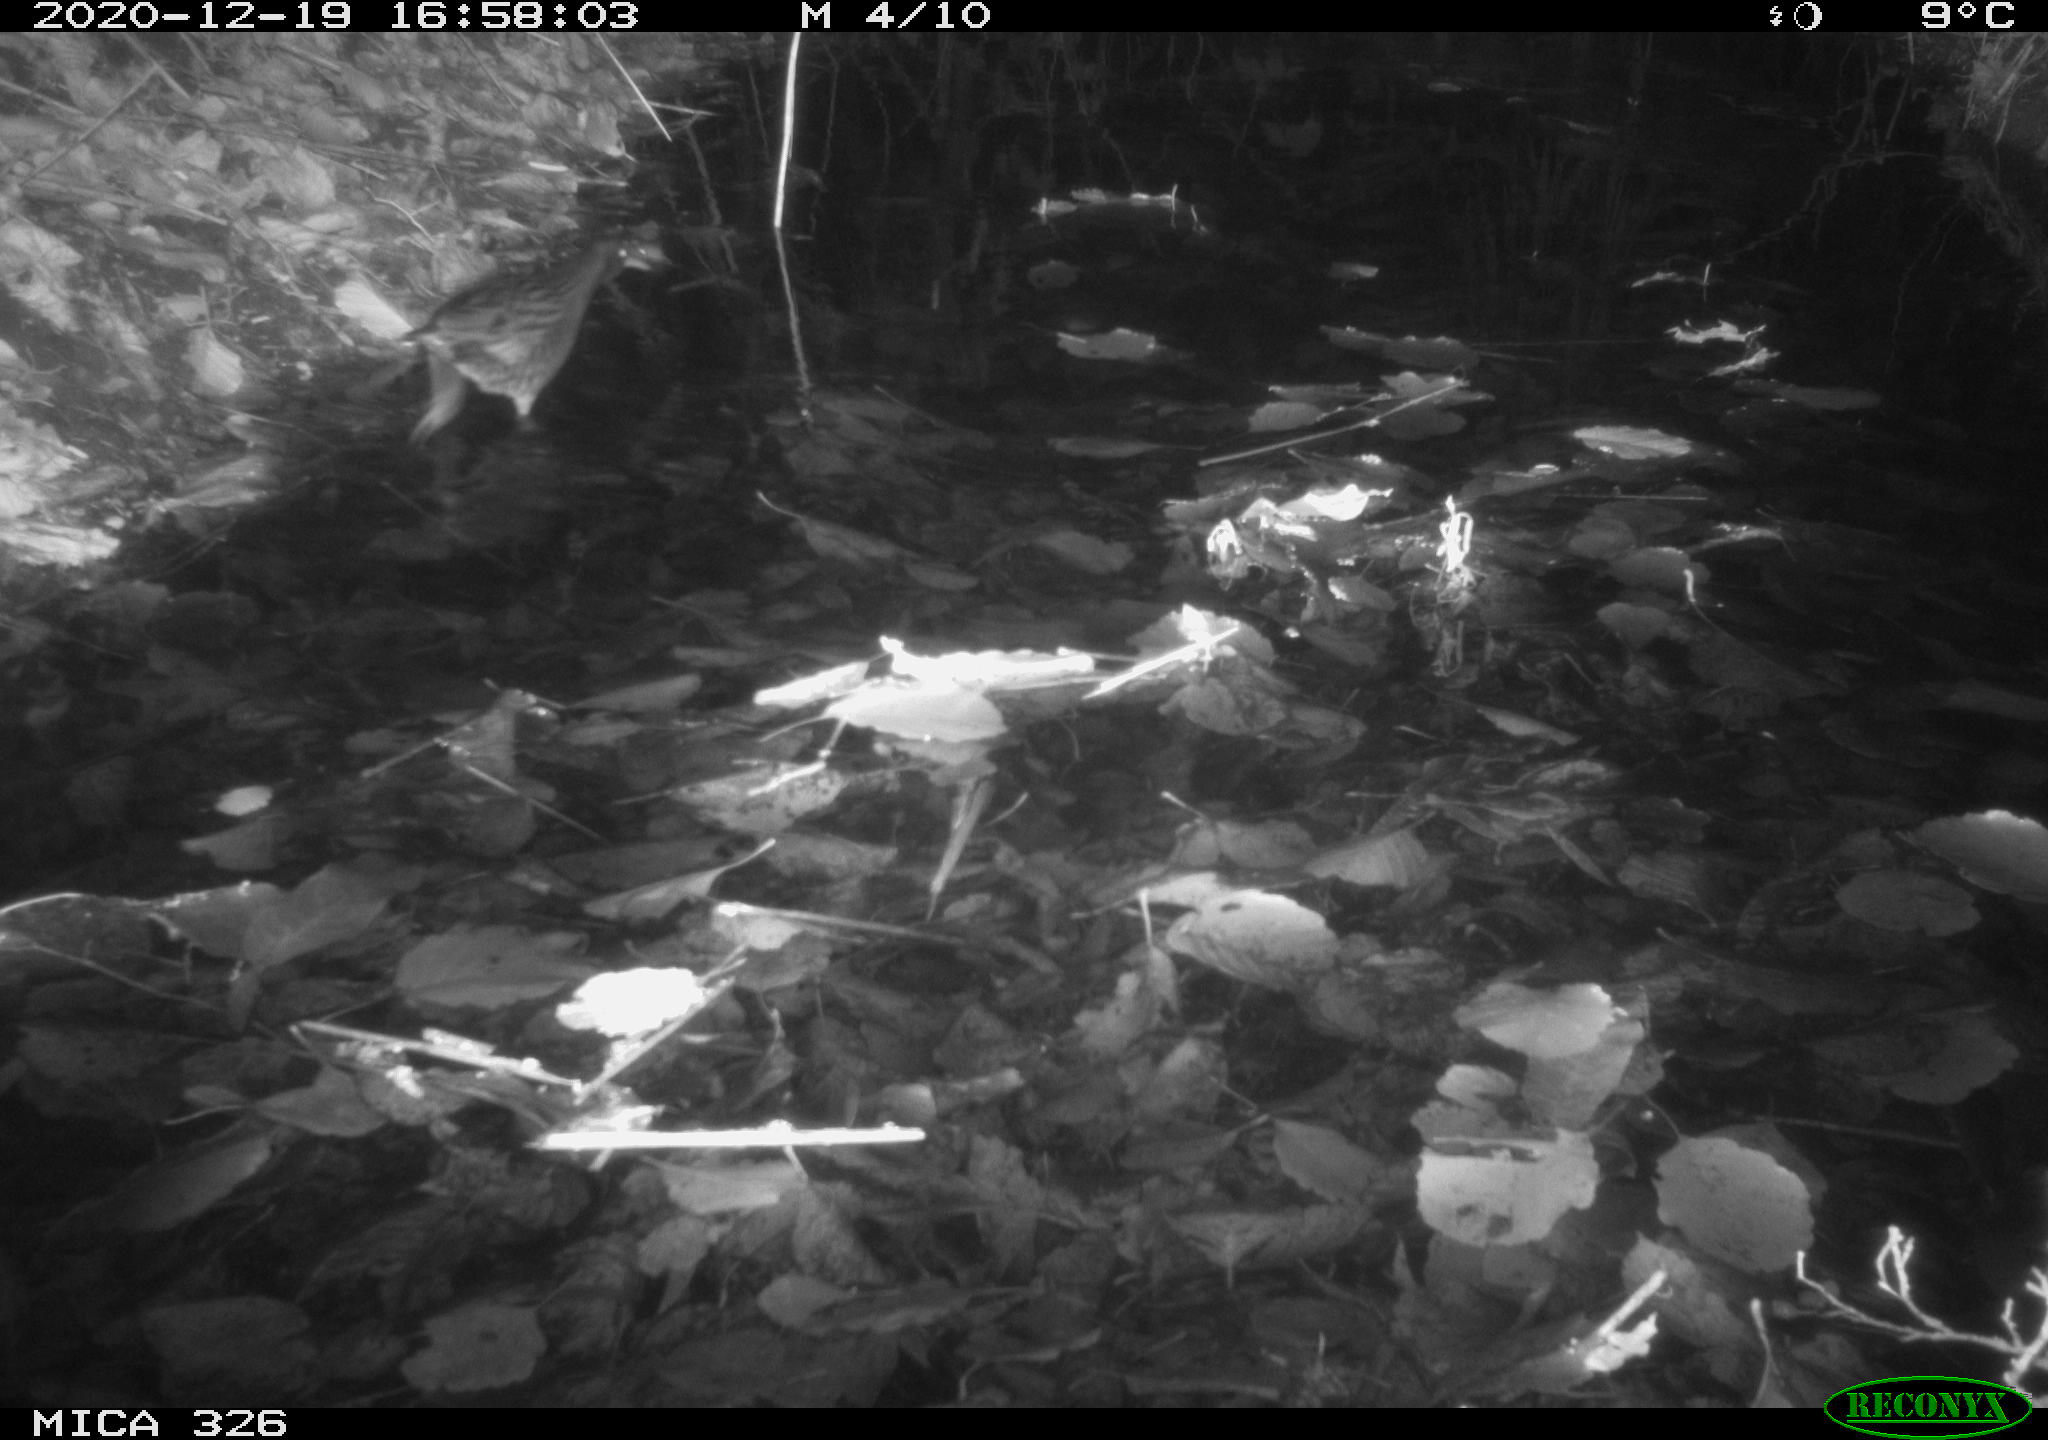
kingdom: Animalia
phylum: Chordata
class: Aves
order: Gruiformes
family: Rallidae
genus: Rallus
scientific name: Rallus aquaticus
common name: Water rail
